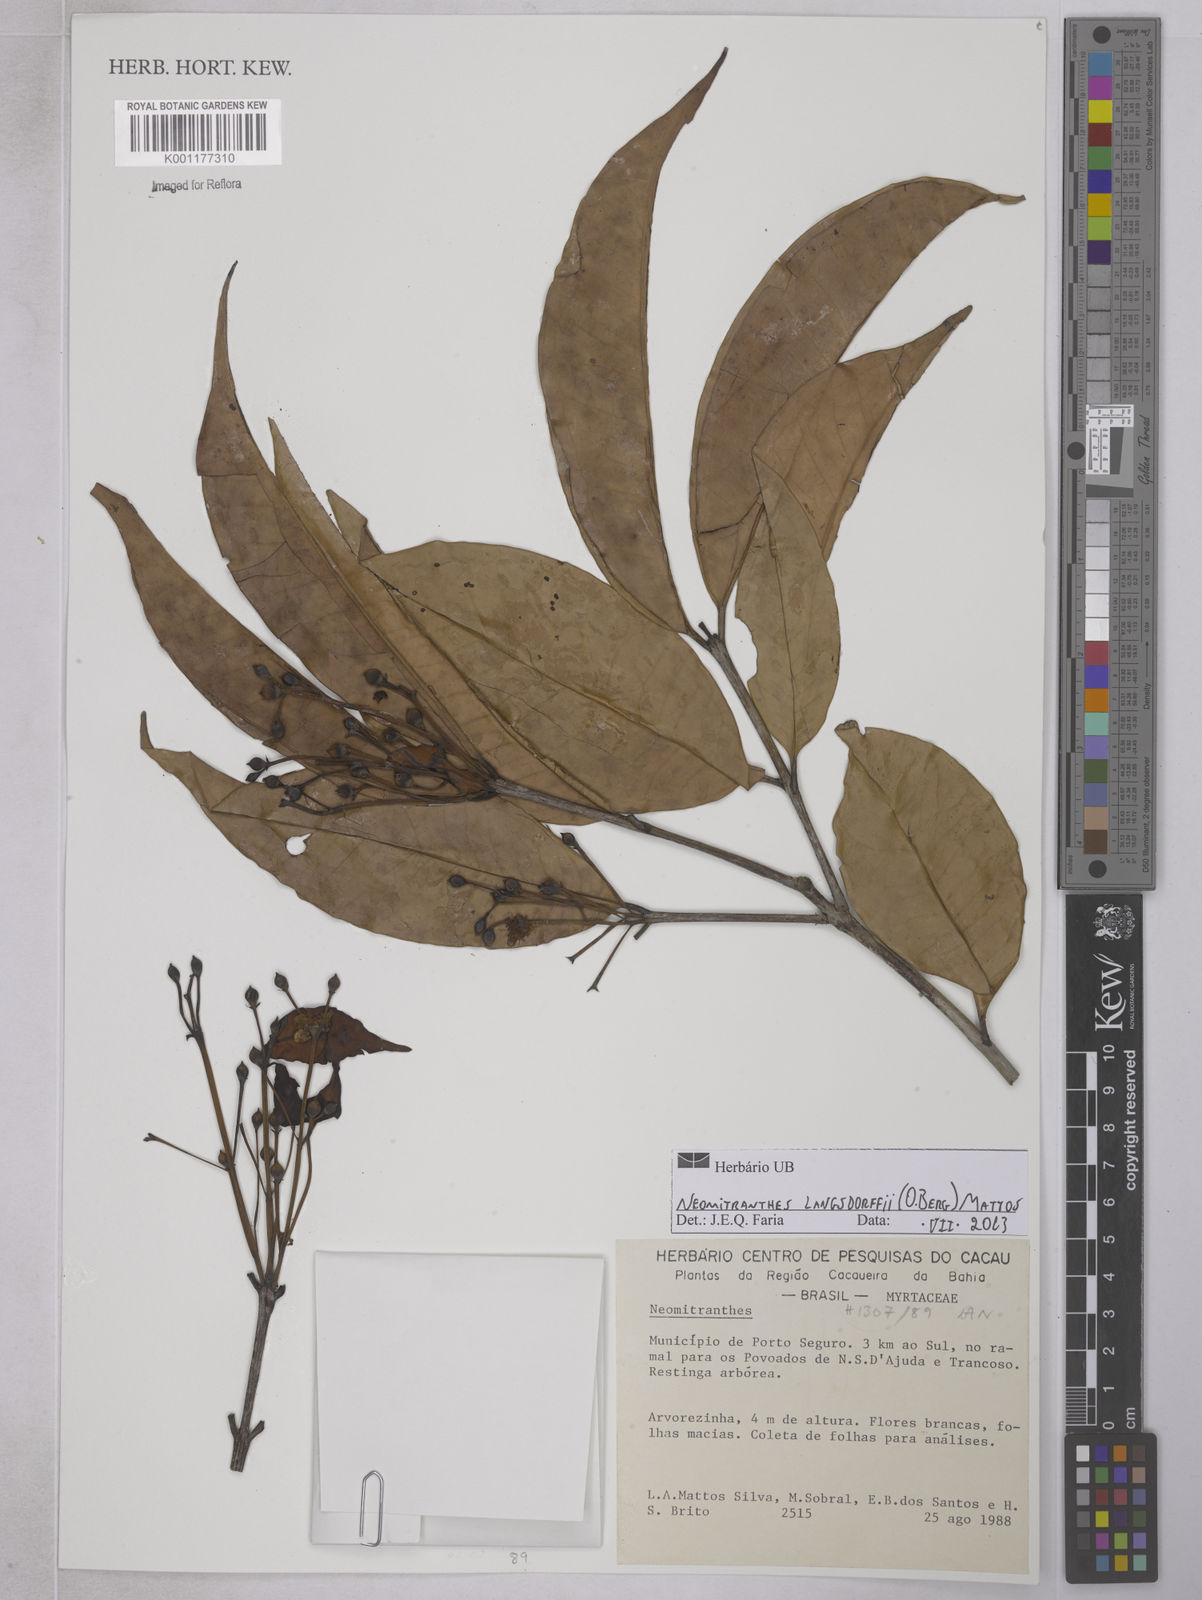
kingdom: Plantae
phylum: Tracheophyta
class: Magnoliopsida
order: Myrtales
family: Myrtaceae
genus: Calycorectes
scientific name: Calycorectes teixeireanus
